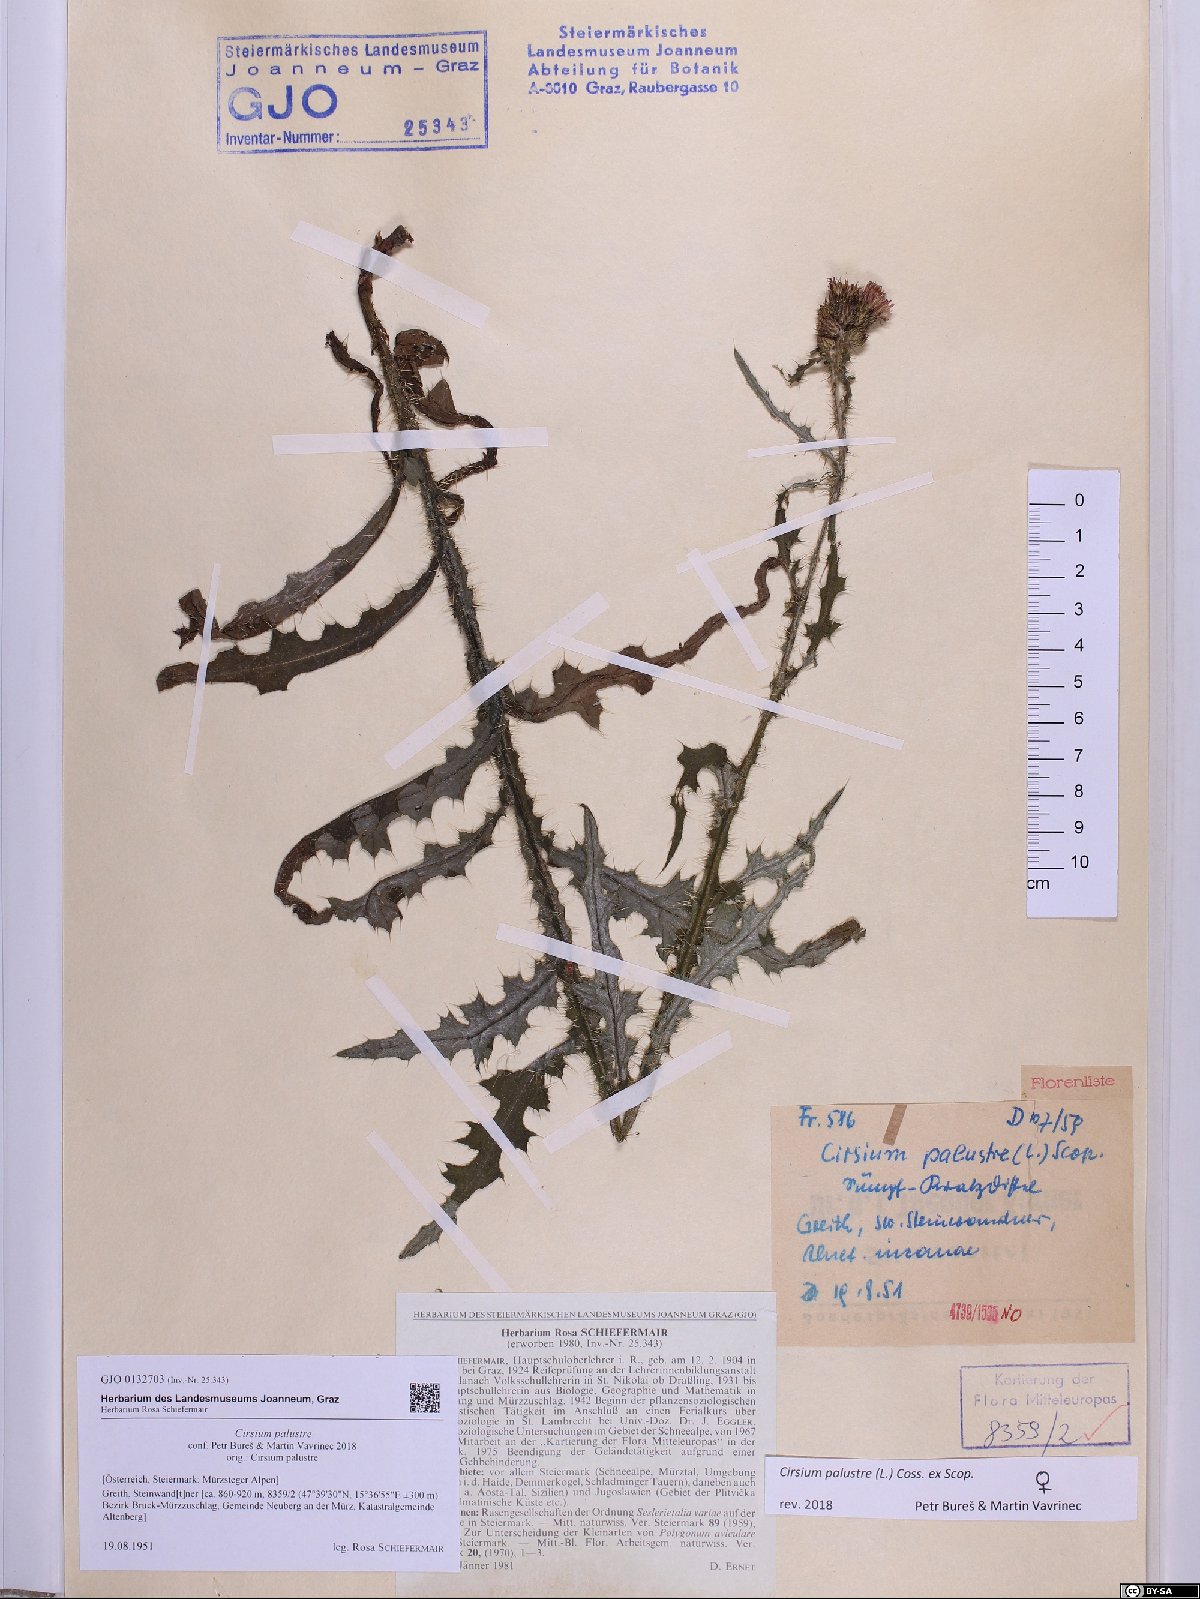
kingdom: Plantae
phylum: Tracheophyta
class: Magnoliopsida
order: Asterales
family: Asteraceae
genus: Cirsium
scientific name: Cirsium palustre
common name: Marsh thistle
